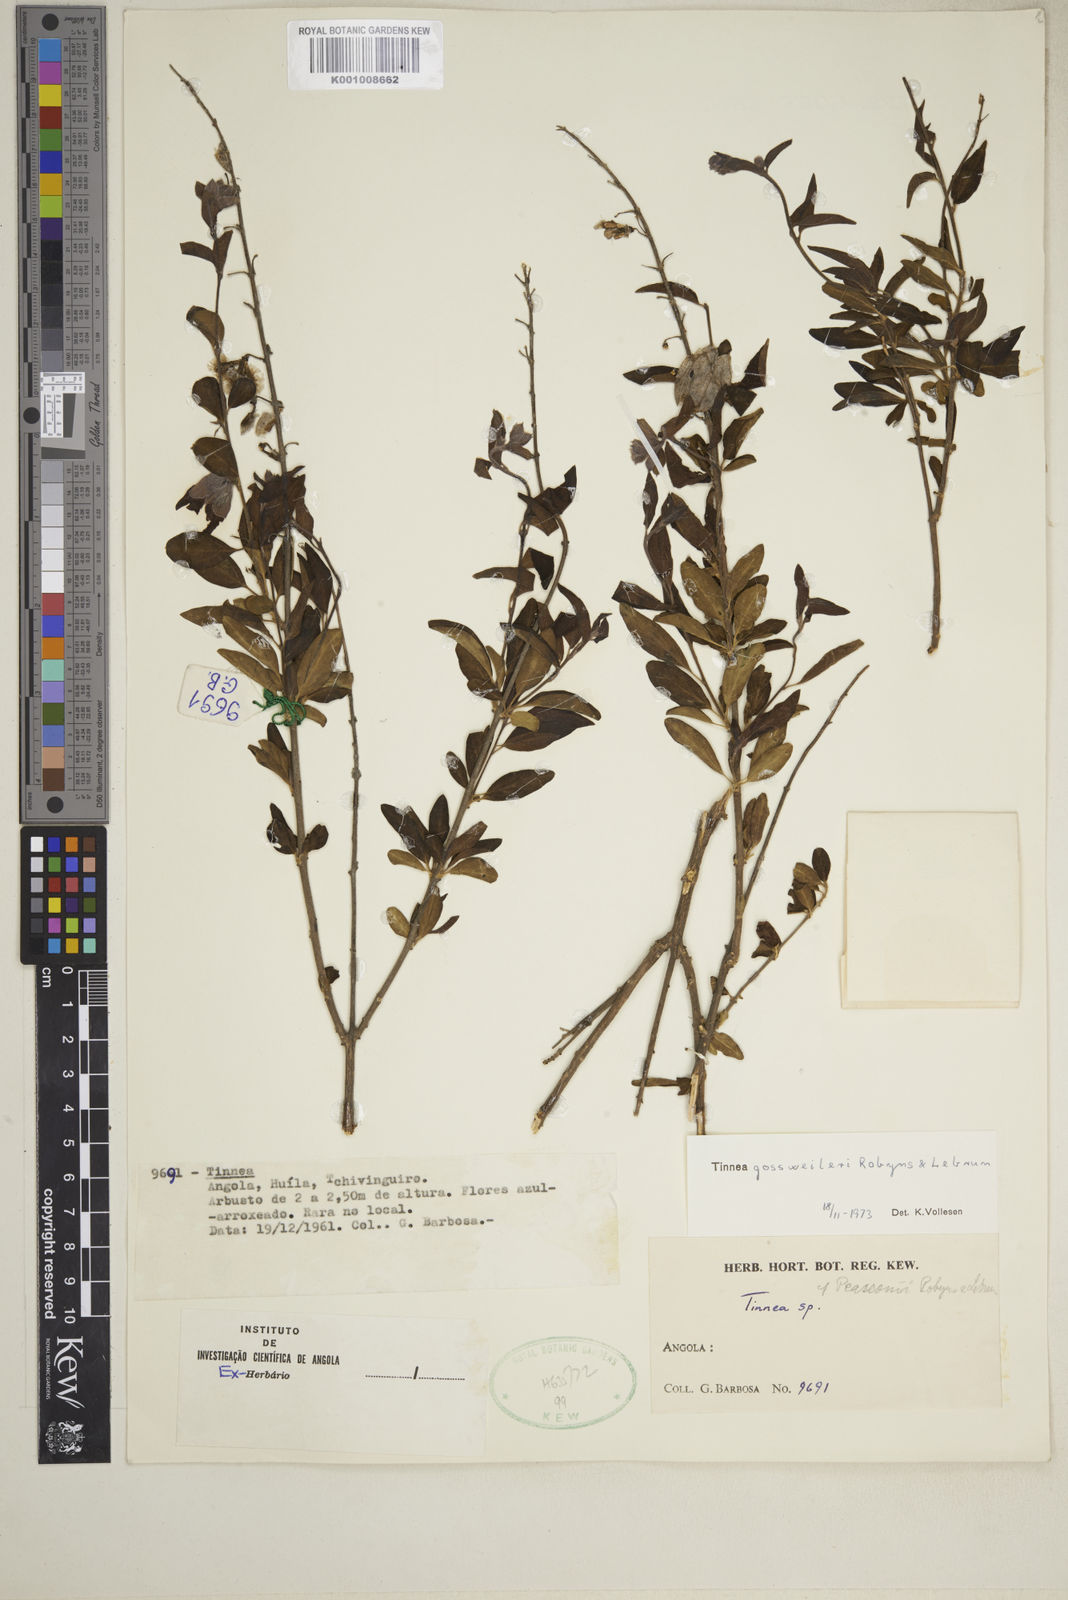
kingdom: Plantae
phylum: Tracheophyta
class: Magnoliopsida
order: Lamiales
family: Lamiaceae
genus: Tinnea
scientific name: Tinnea gossweileri
